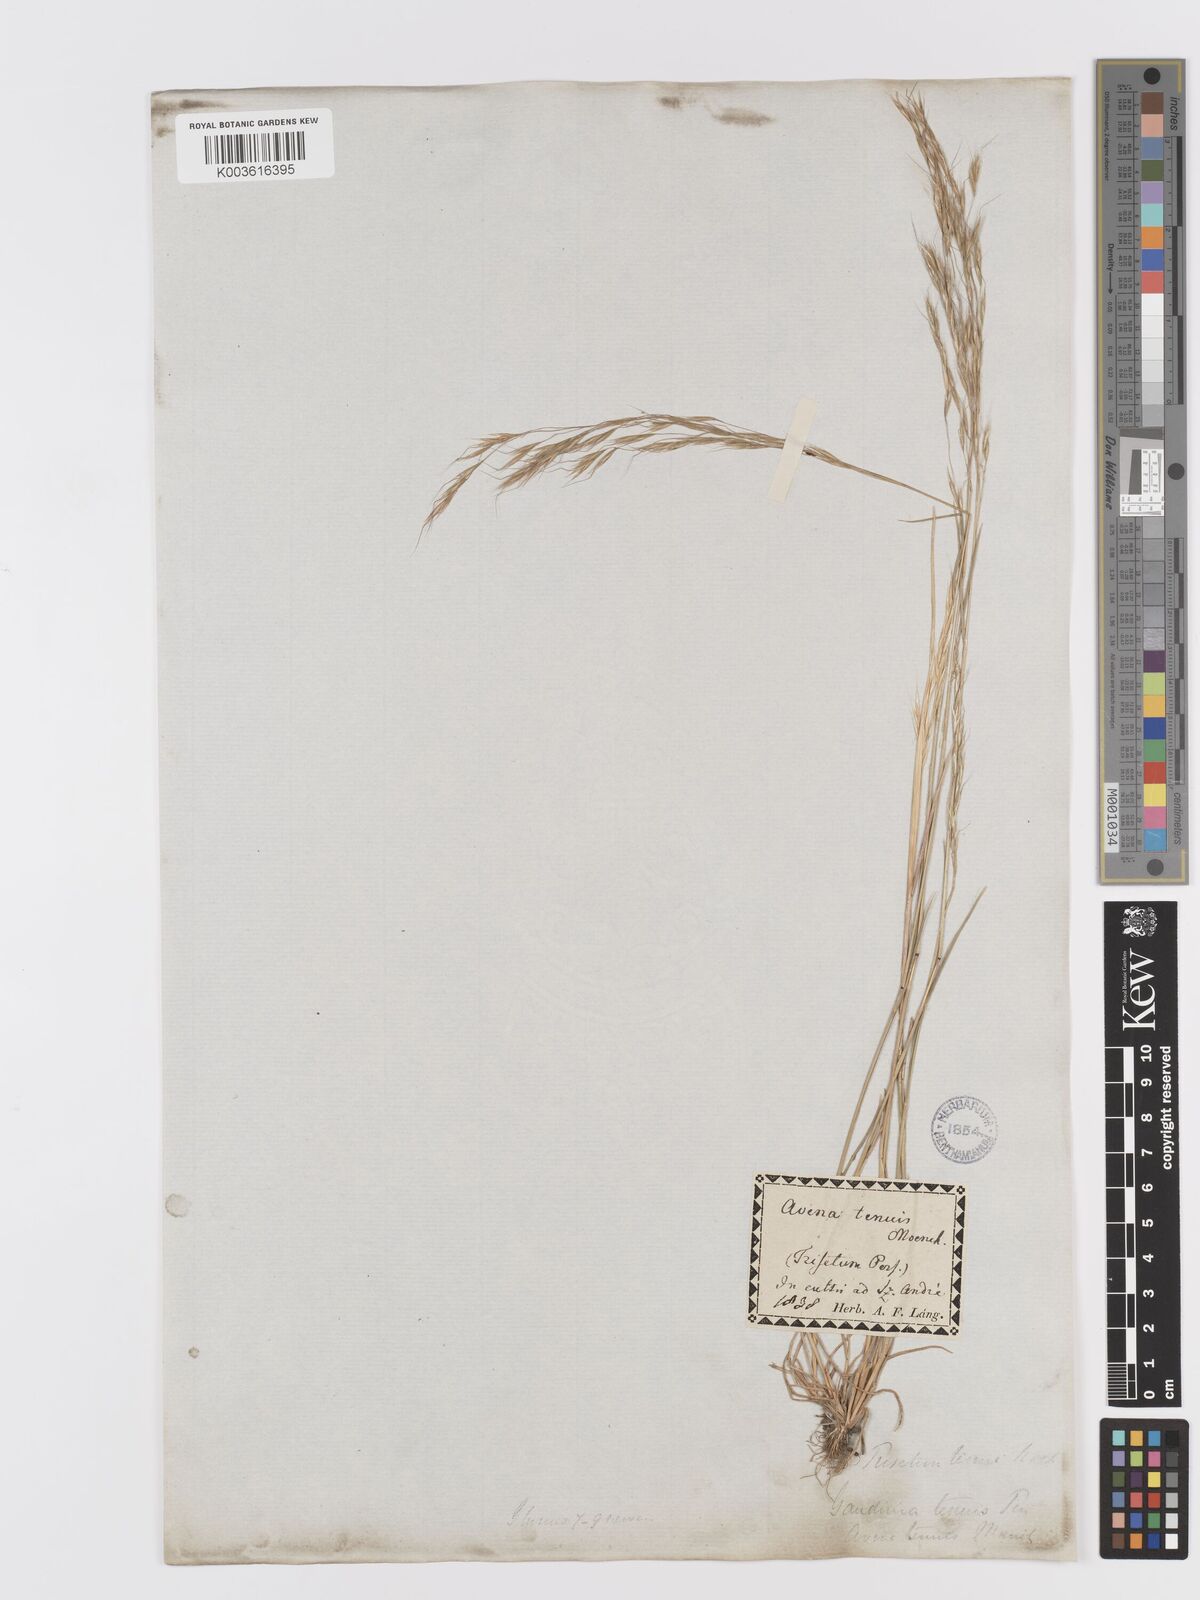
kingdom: Plantae
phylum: Tracheophyta
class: Liliopsida
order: Poales
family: Poaceae
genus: Ventenata
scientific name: Ventenata dubia
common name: North africa grass
